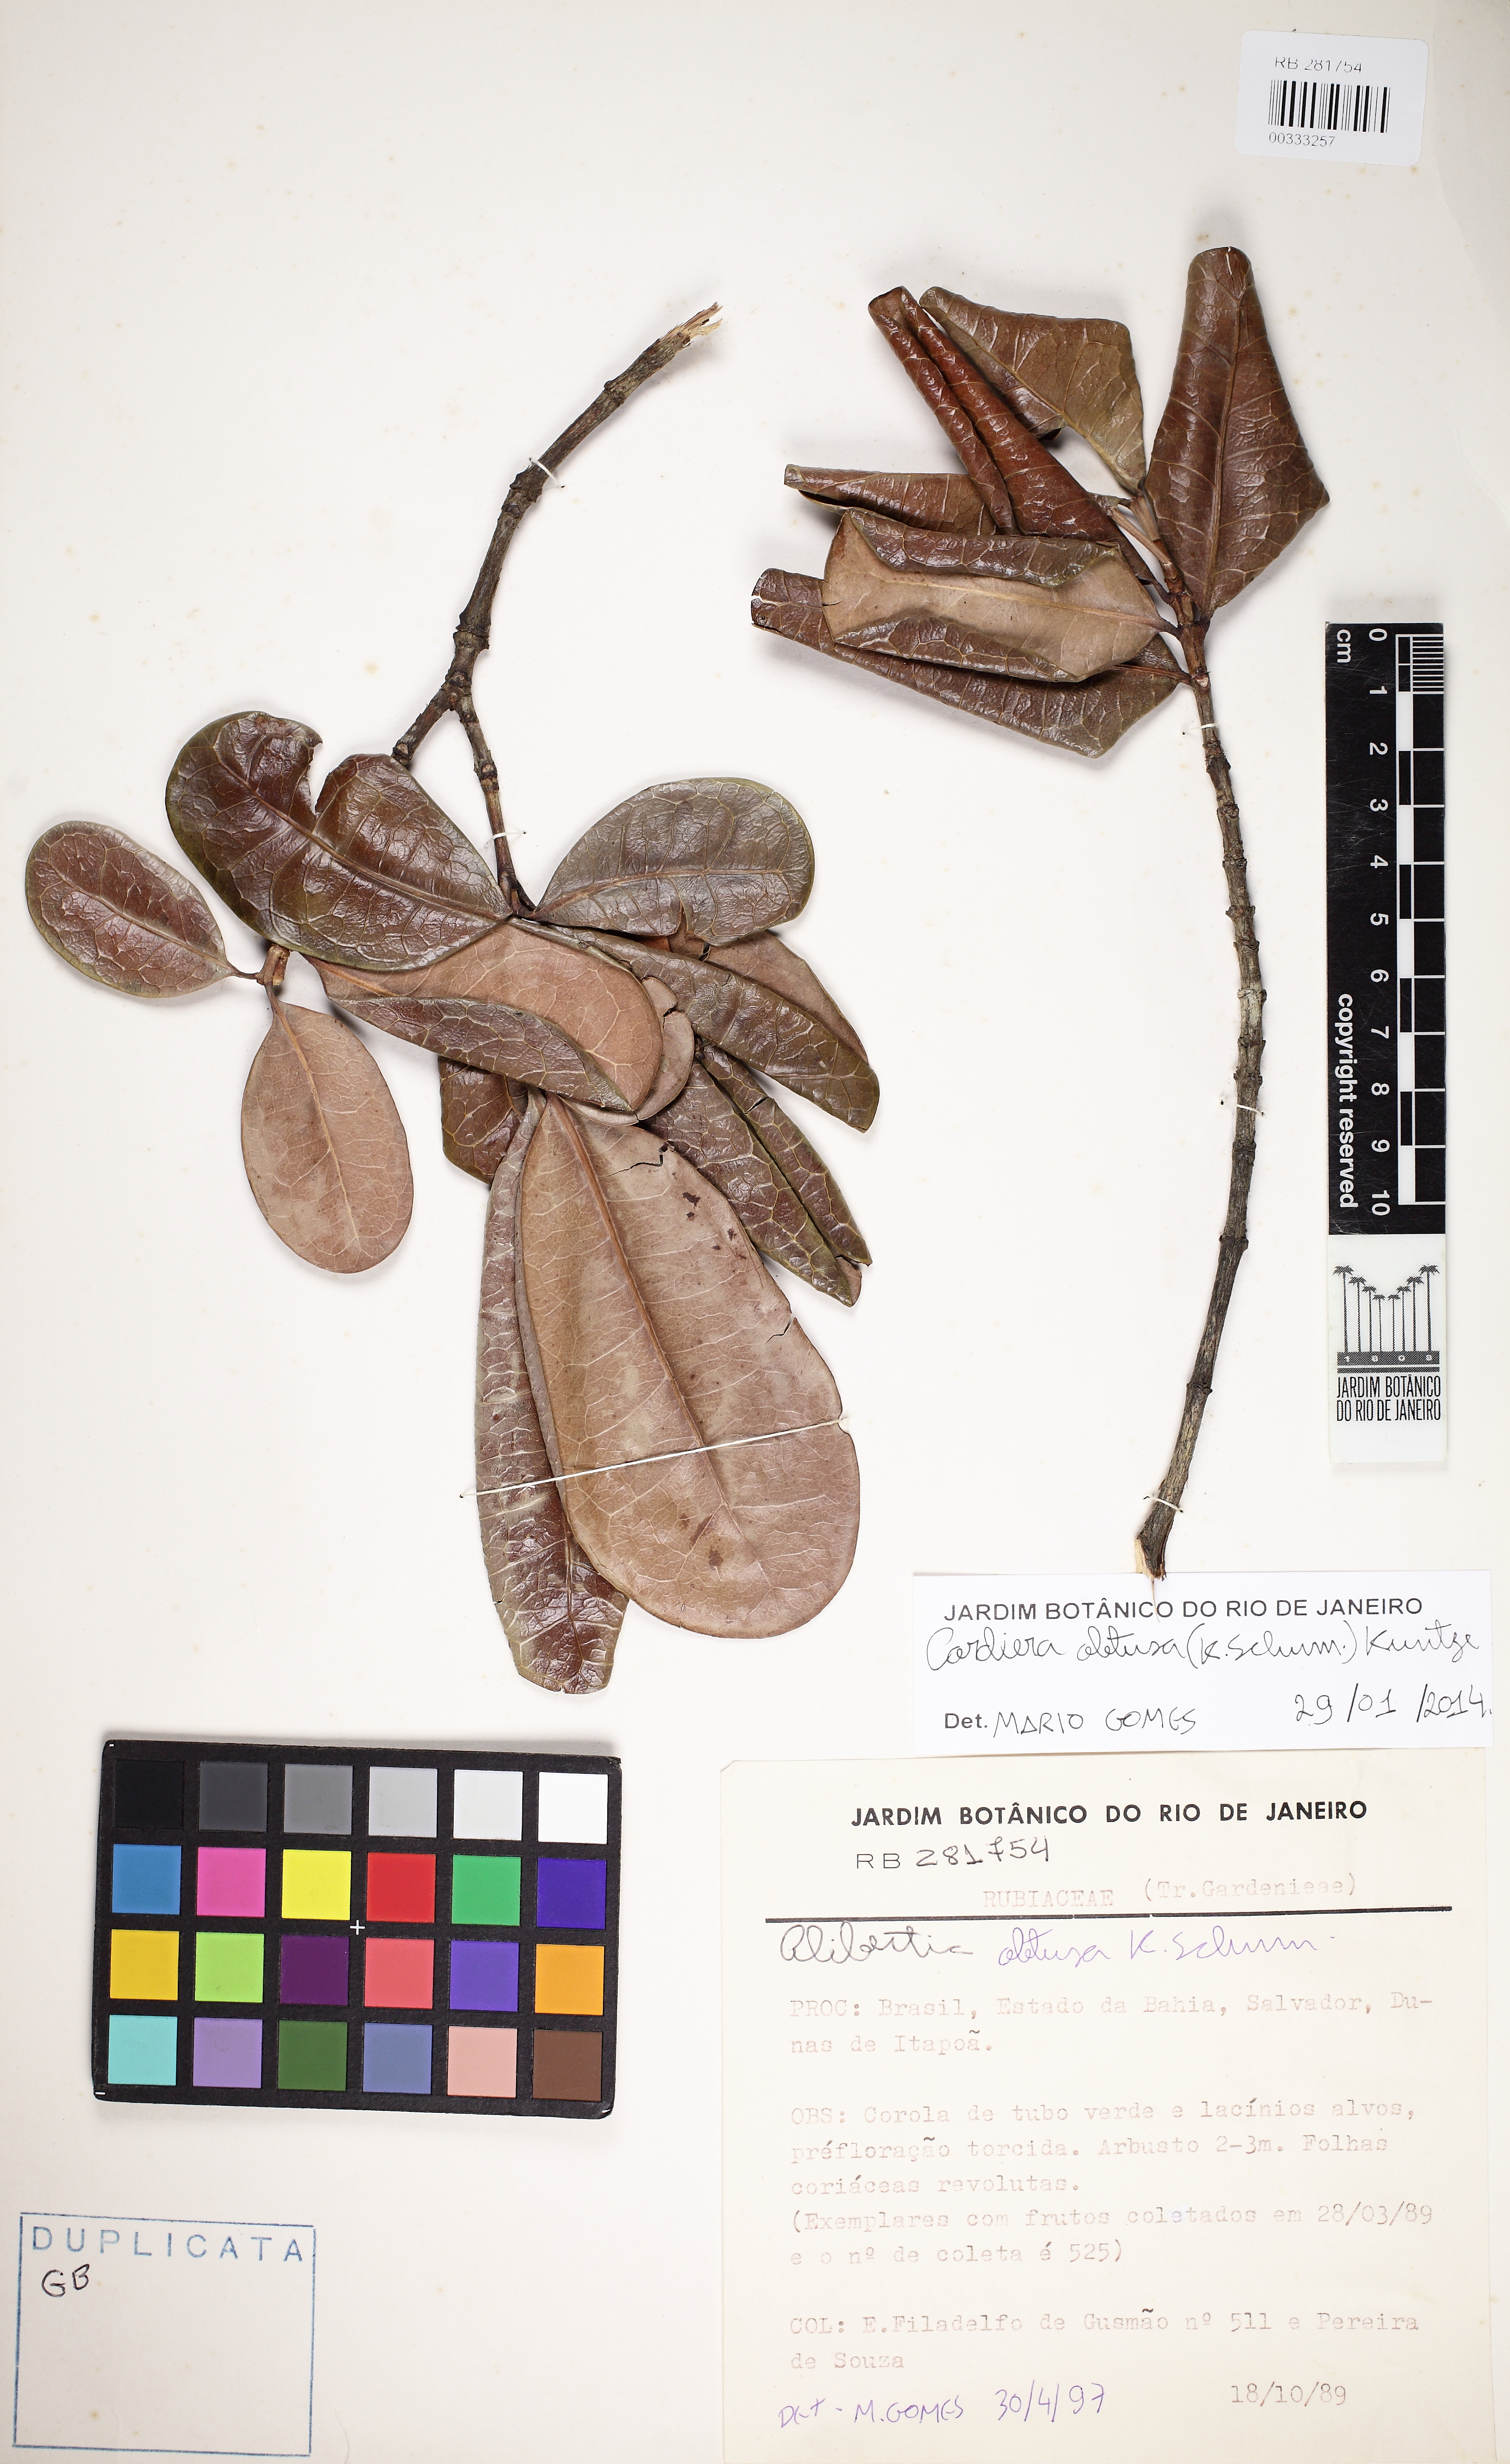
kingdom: Plantae
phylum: Tracheophyta
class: Magnoliopsida
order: Gentianales
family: Rubiaceae
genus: Cordiera
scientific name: Cordiera obtusa
